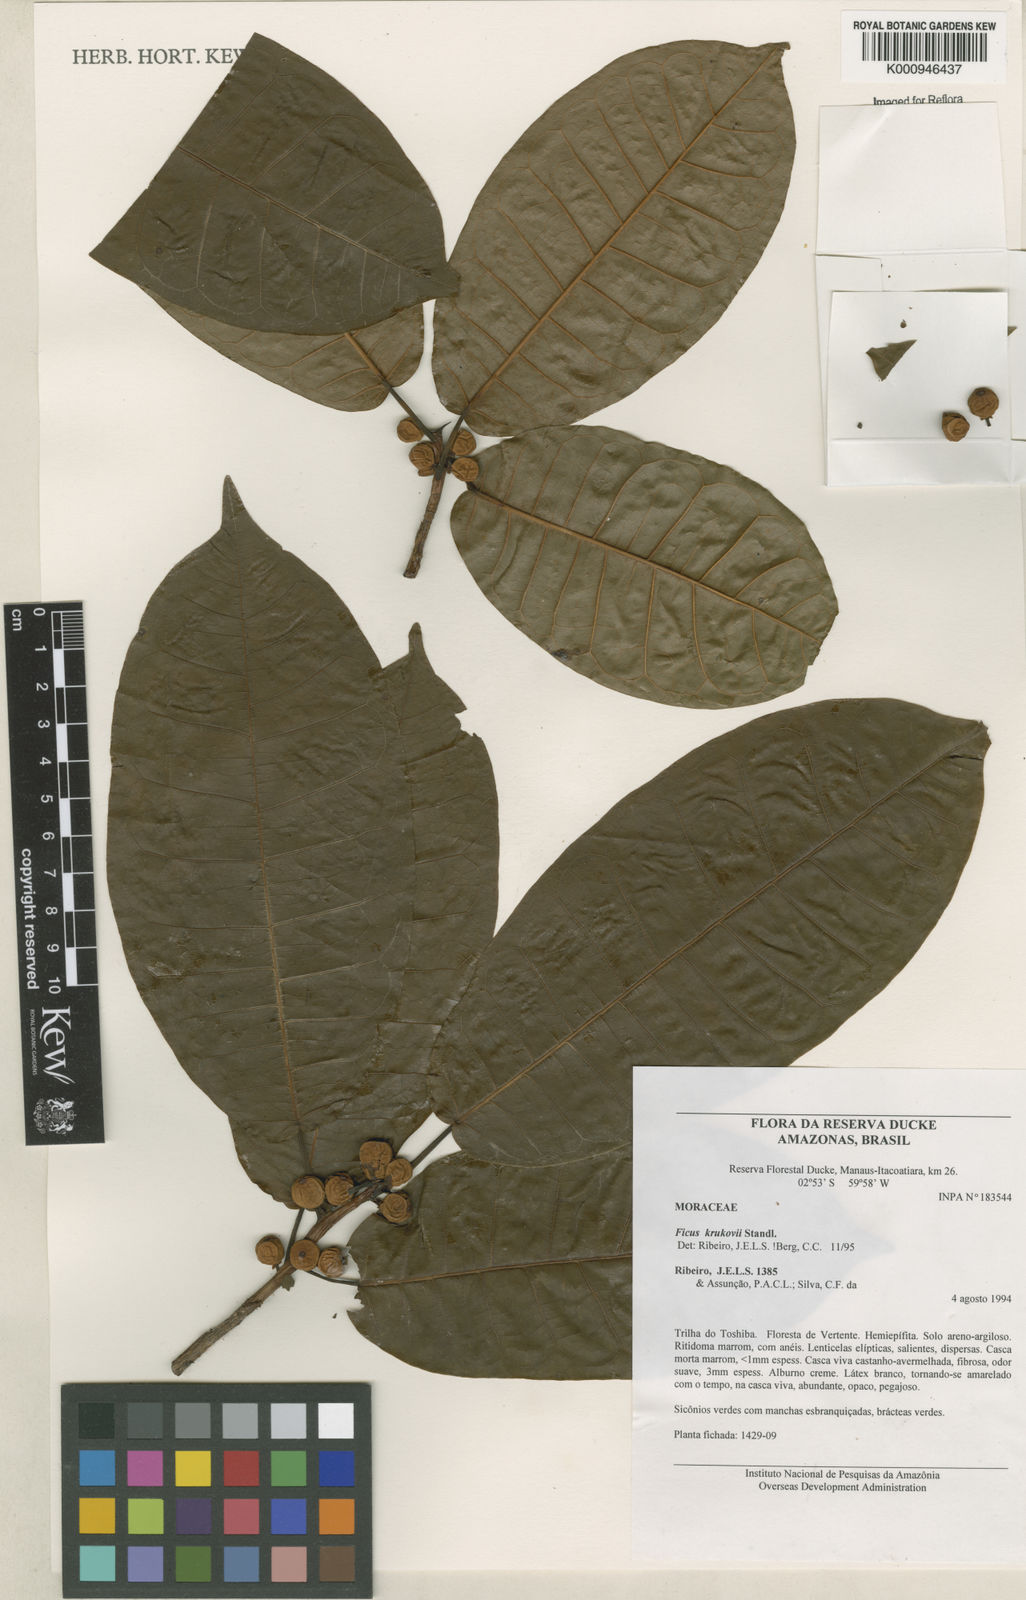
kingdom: Plantae
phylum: Tracheophyta
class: Magnoliopsida
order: Rosales
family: Moraceae
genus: Ficus
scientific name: Ficus krukovii
